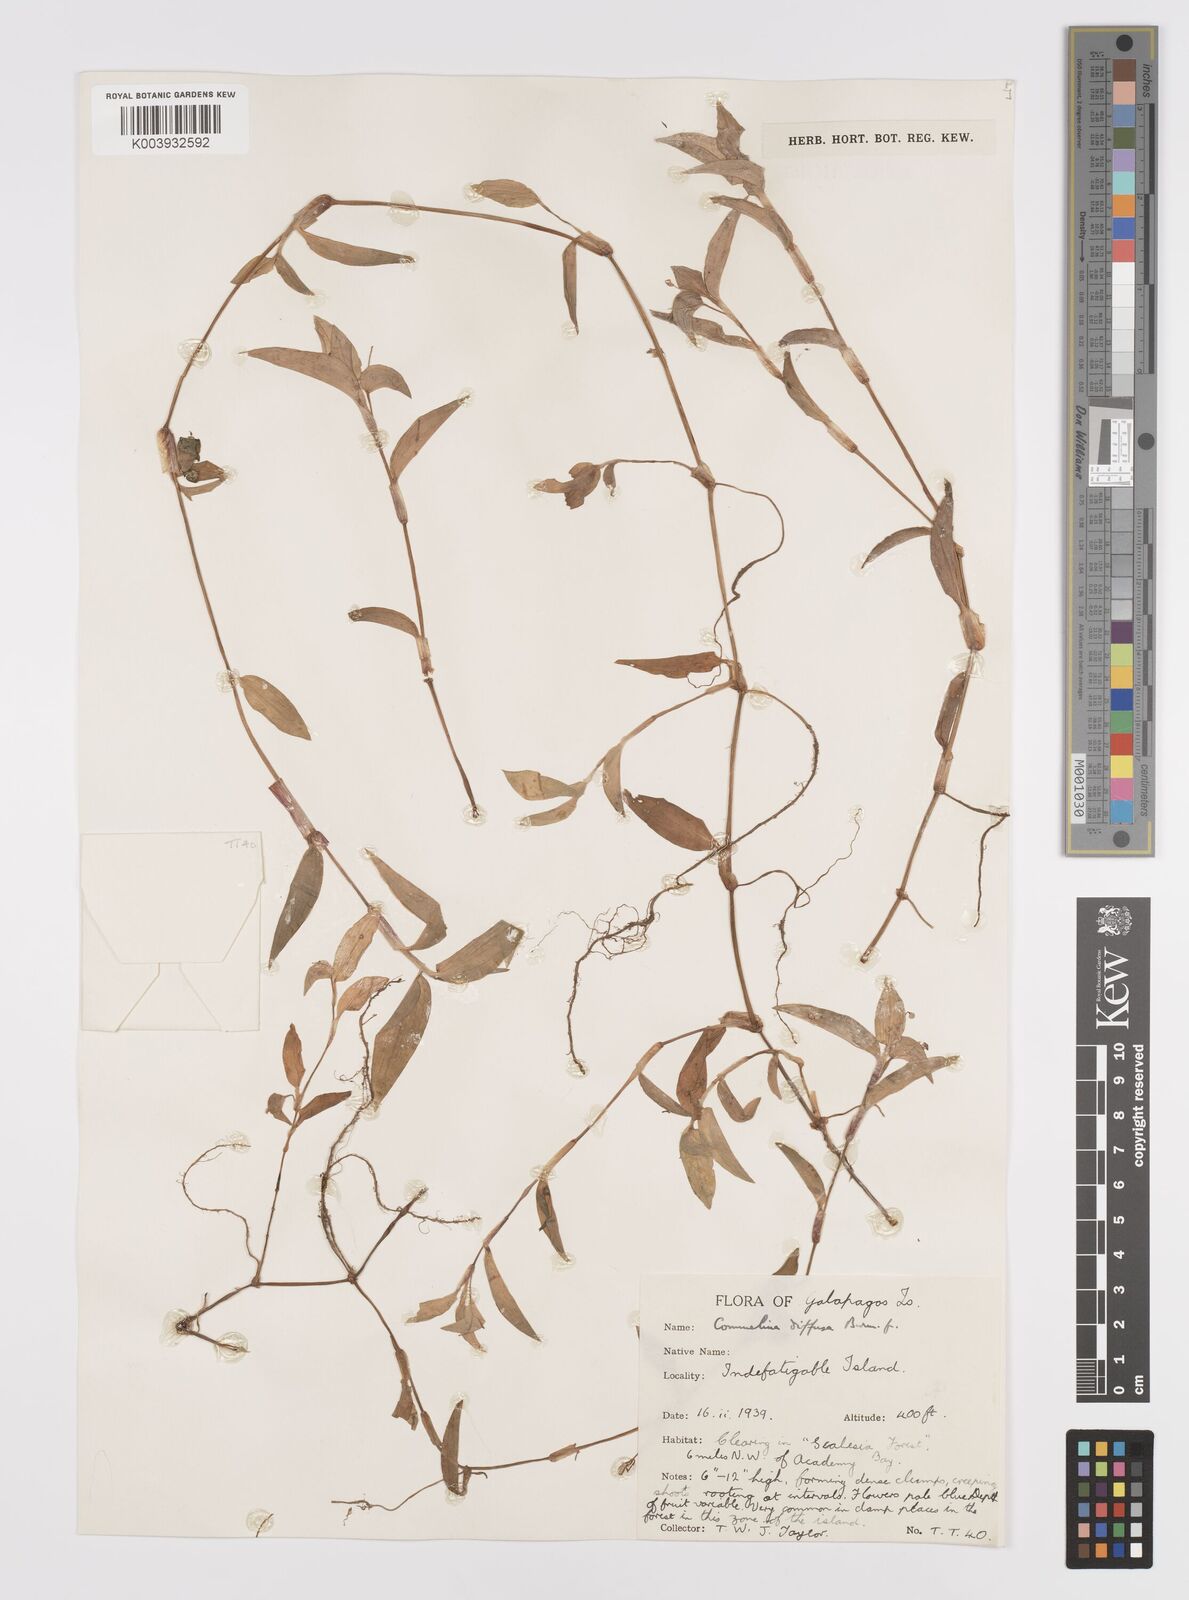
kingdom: Plantae
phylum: Tracheophyta
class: Liliopsida
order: Commelinales
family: Commelinaceae
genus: Commelina
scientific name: Commelina diffusa
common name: Climbing dayflower
